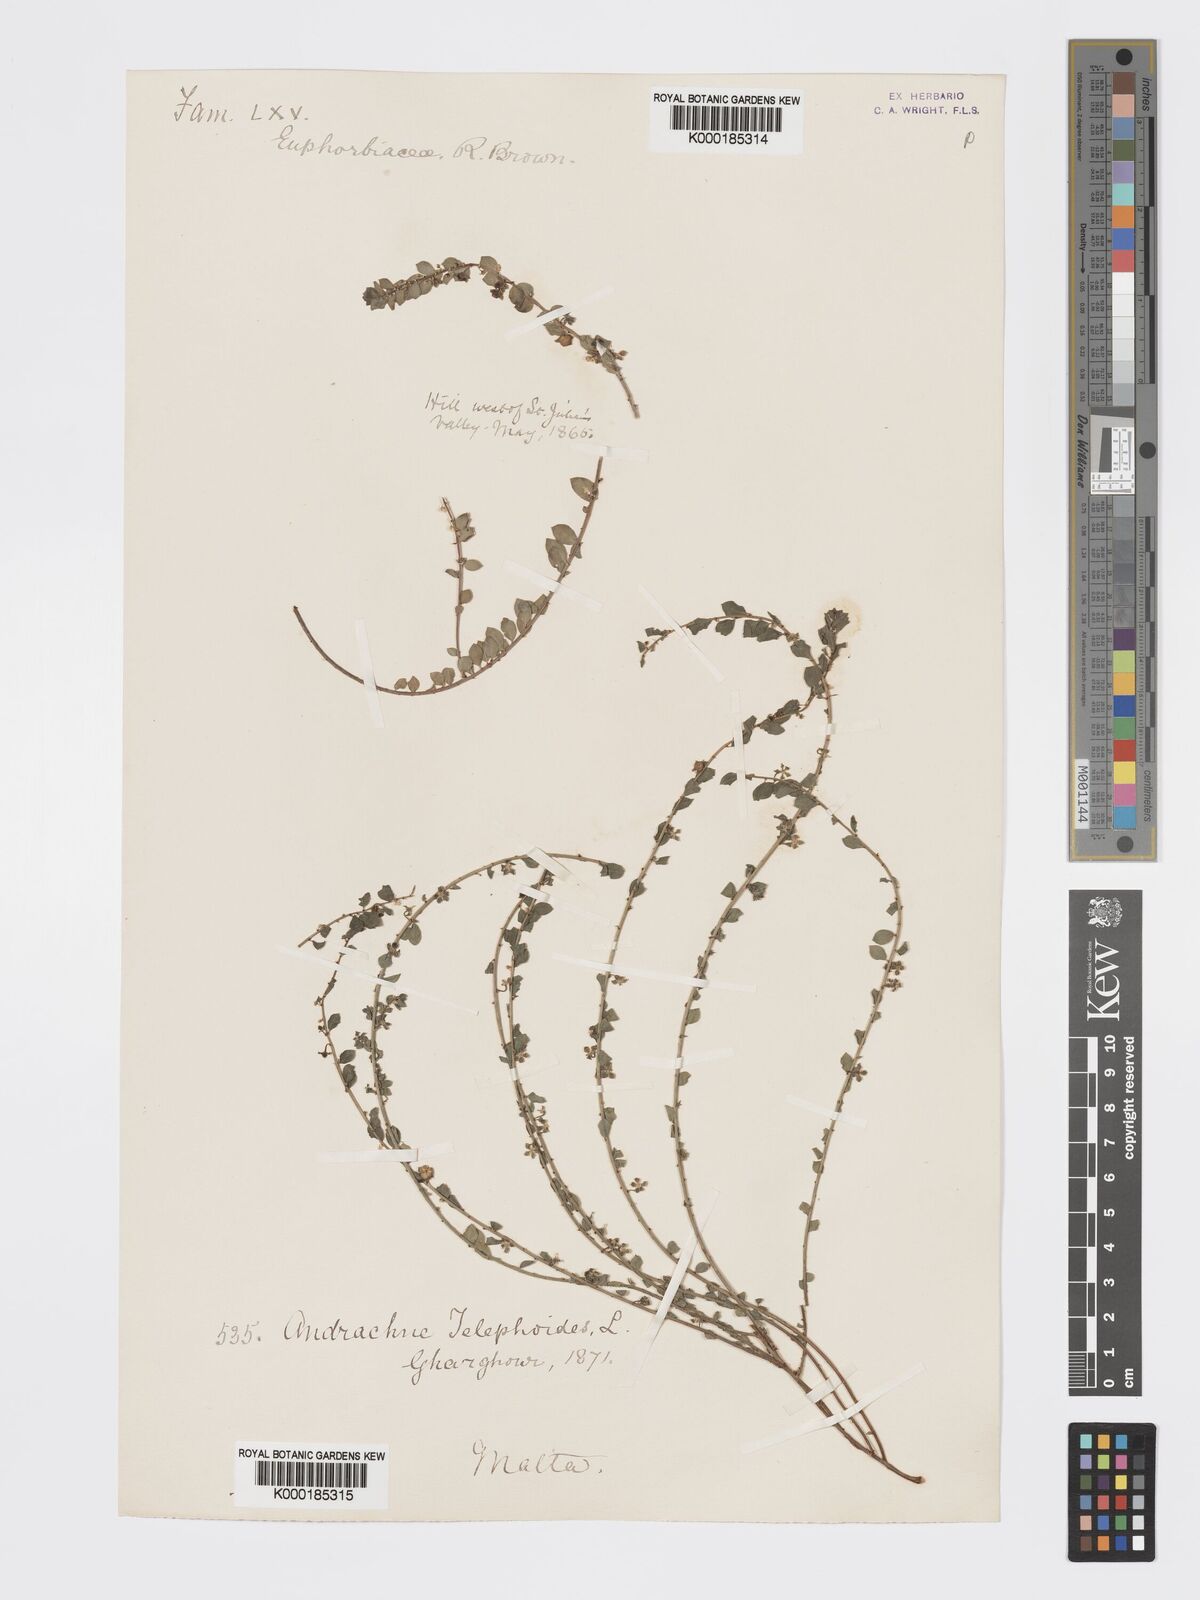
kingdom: Plantae
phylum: Tracheophyta
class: Magnoliopsida
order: Malpighiales
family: Phyllanthaceae
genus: Andrachne
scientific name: Andrachne telephioides
